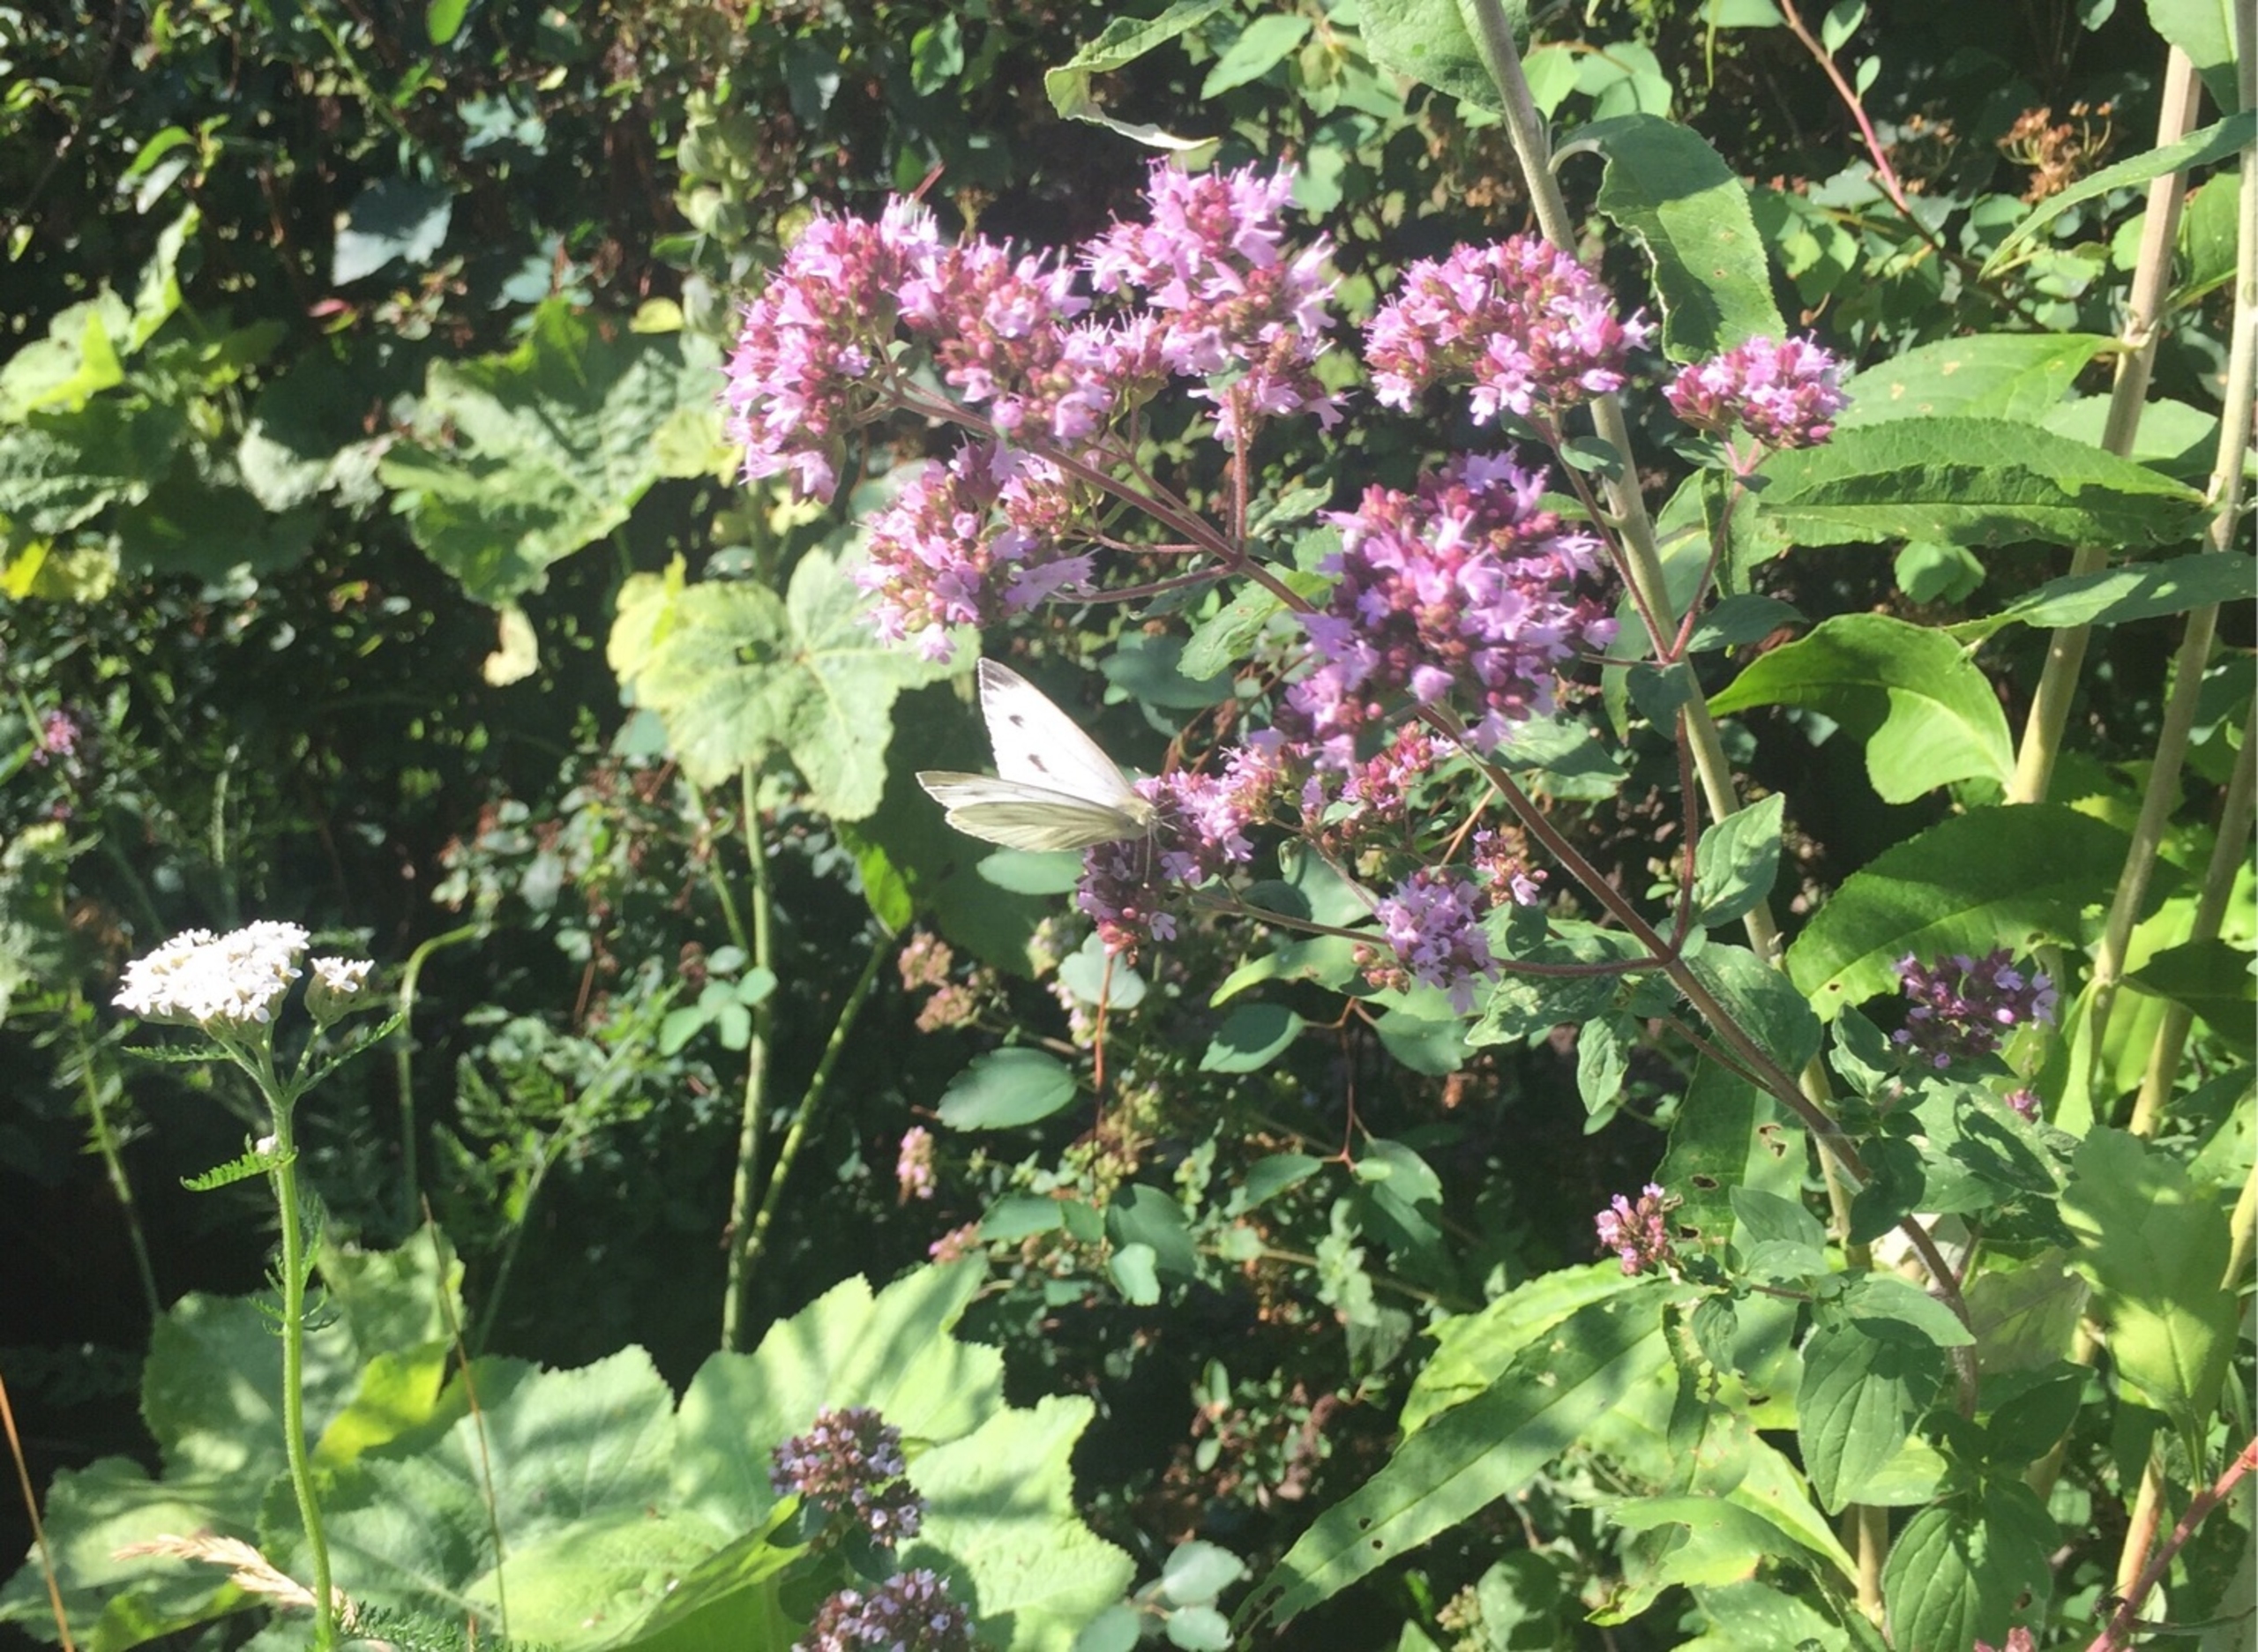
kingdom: Animalia
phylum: Arthropoda
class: Insecta
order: Lepidoptera
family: Pieridae
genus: Pieris
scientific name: Pieris napi
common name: Grønåret kålsommerfugl
